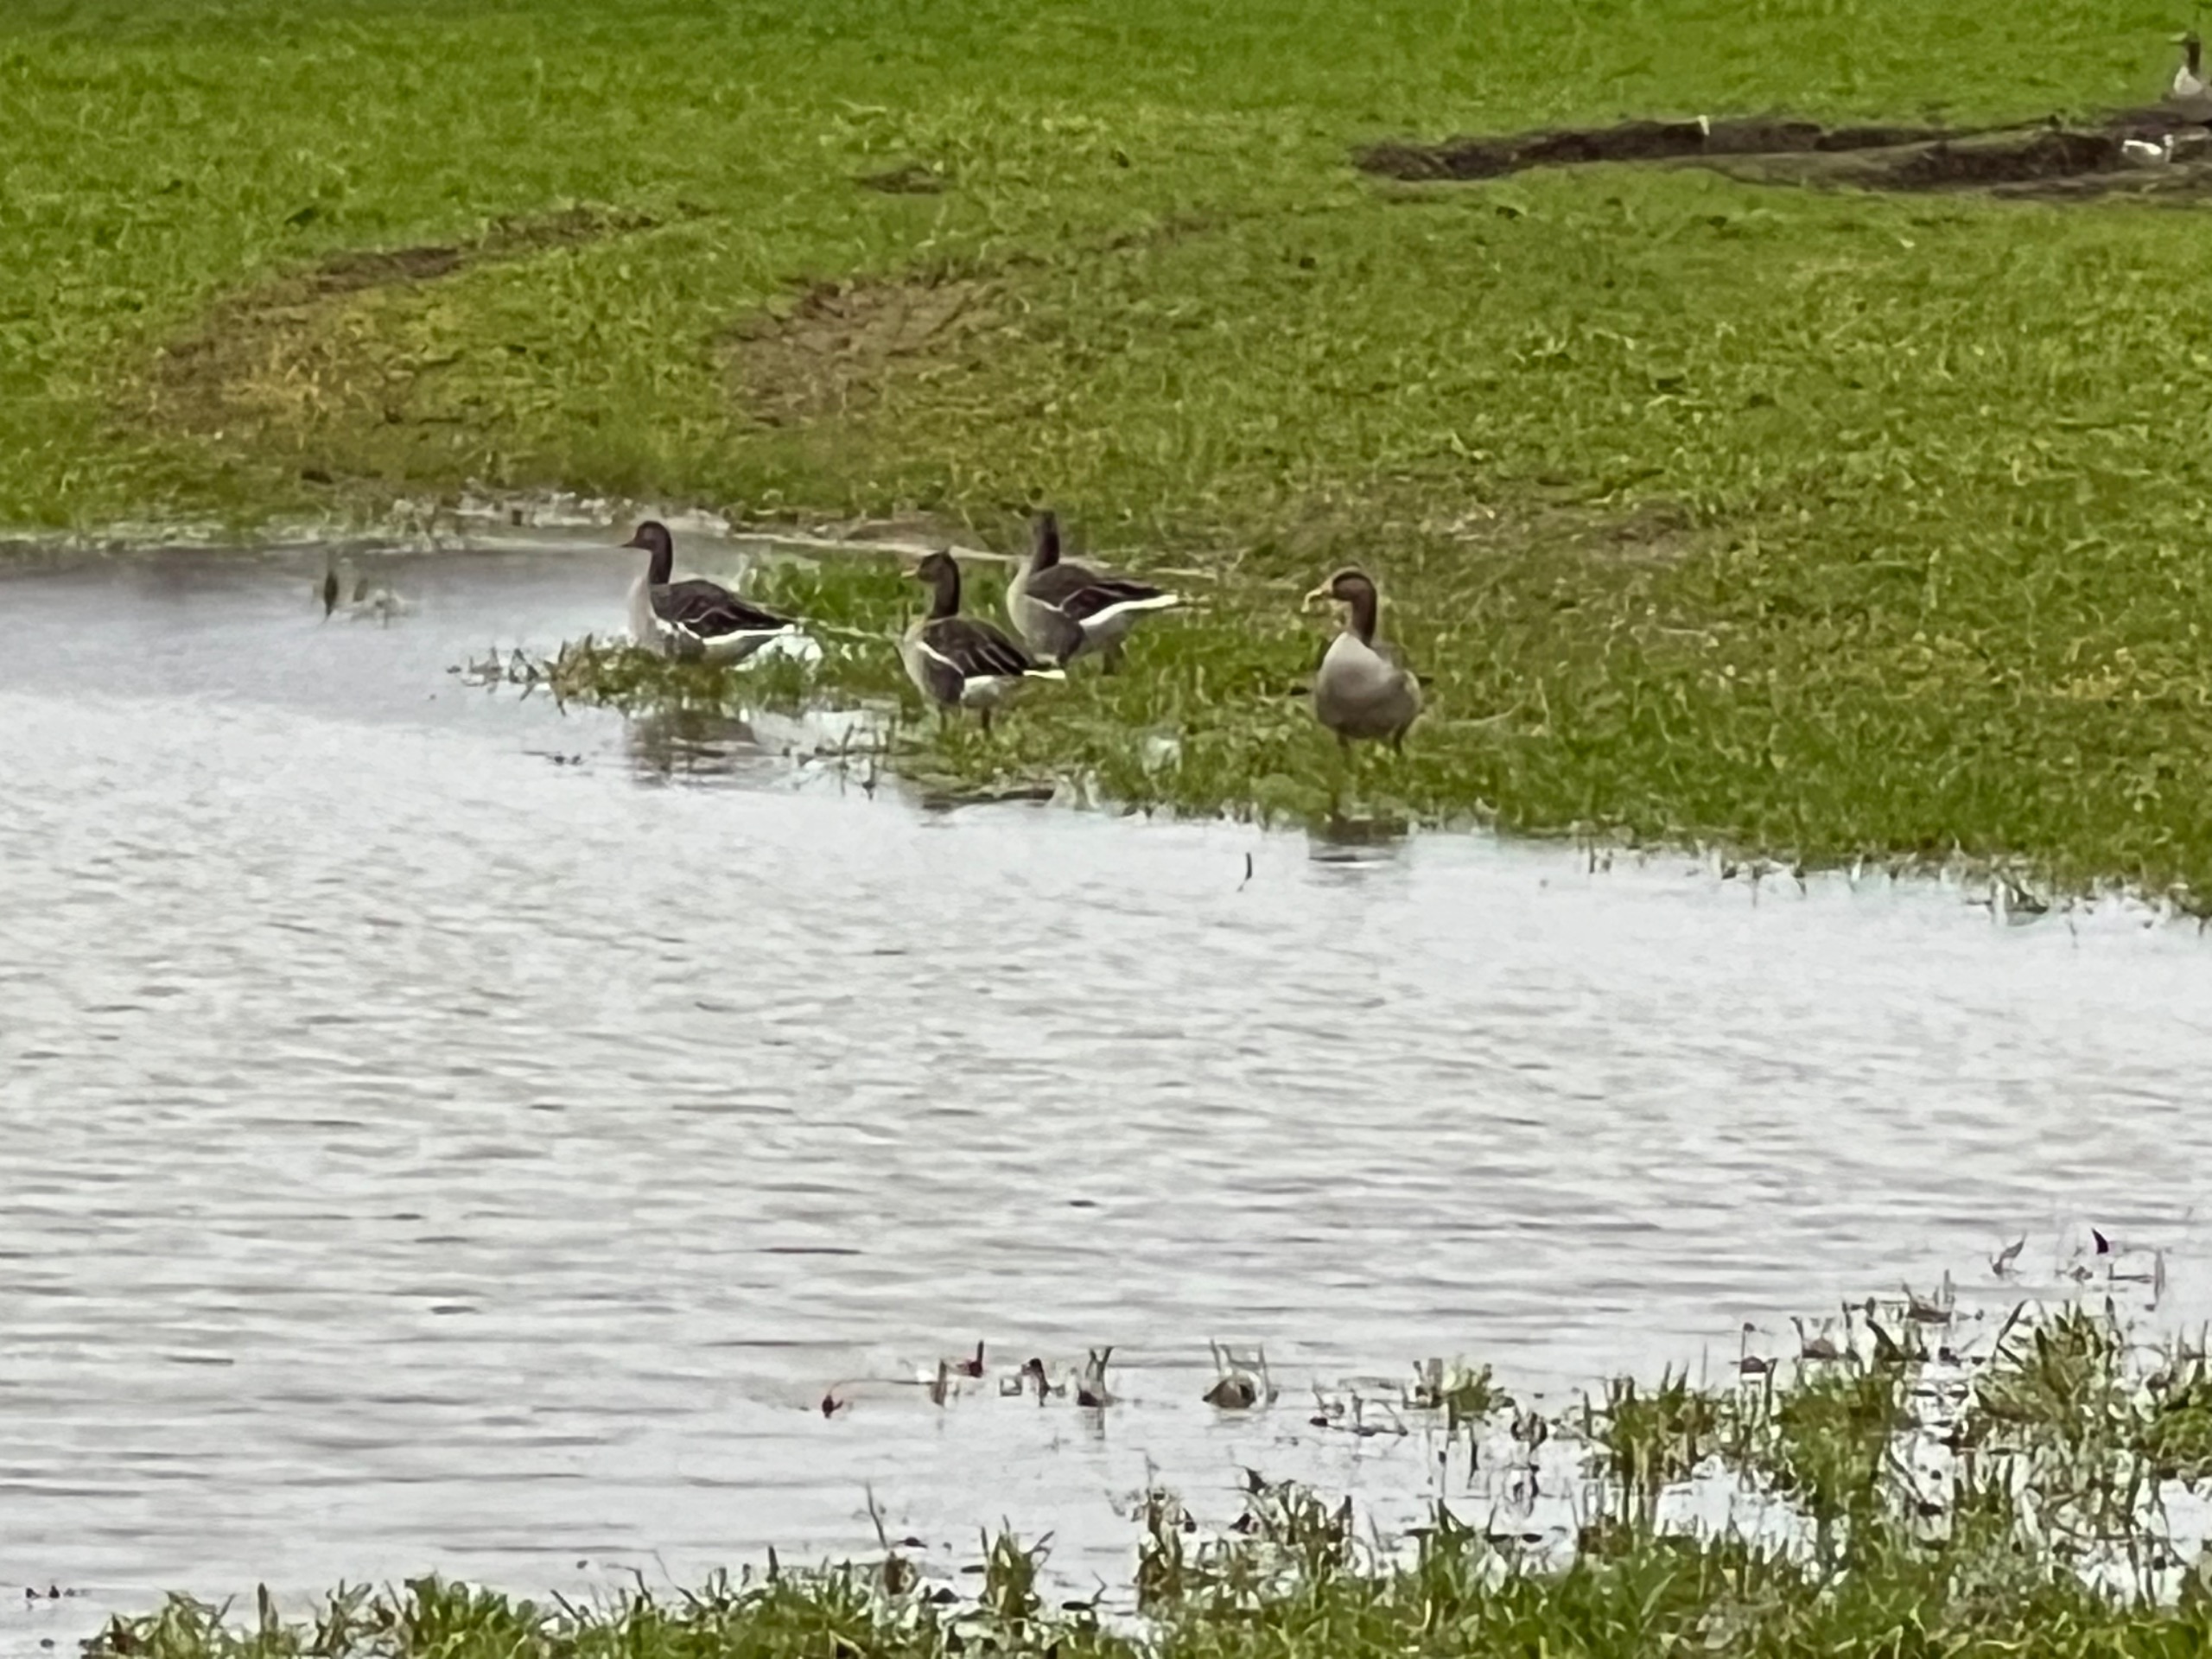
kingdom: Animalia
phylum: Chordata
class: Aves
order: Anseriformes
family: Anatidae
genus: Anser
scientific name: Anser anser
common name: Grågås
